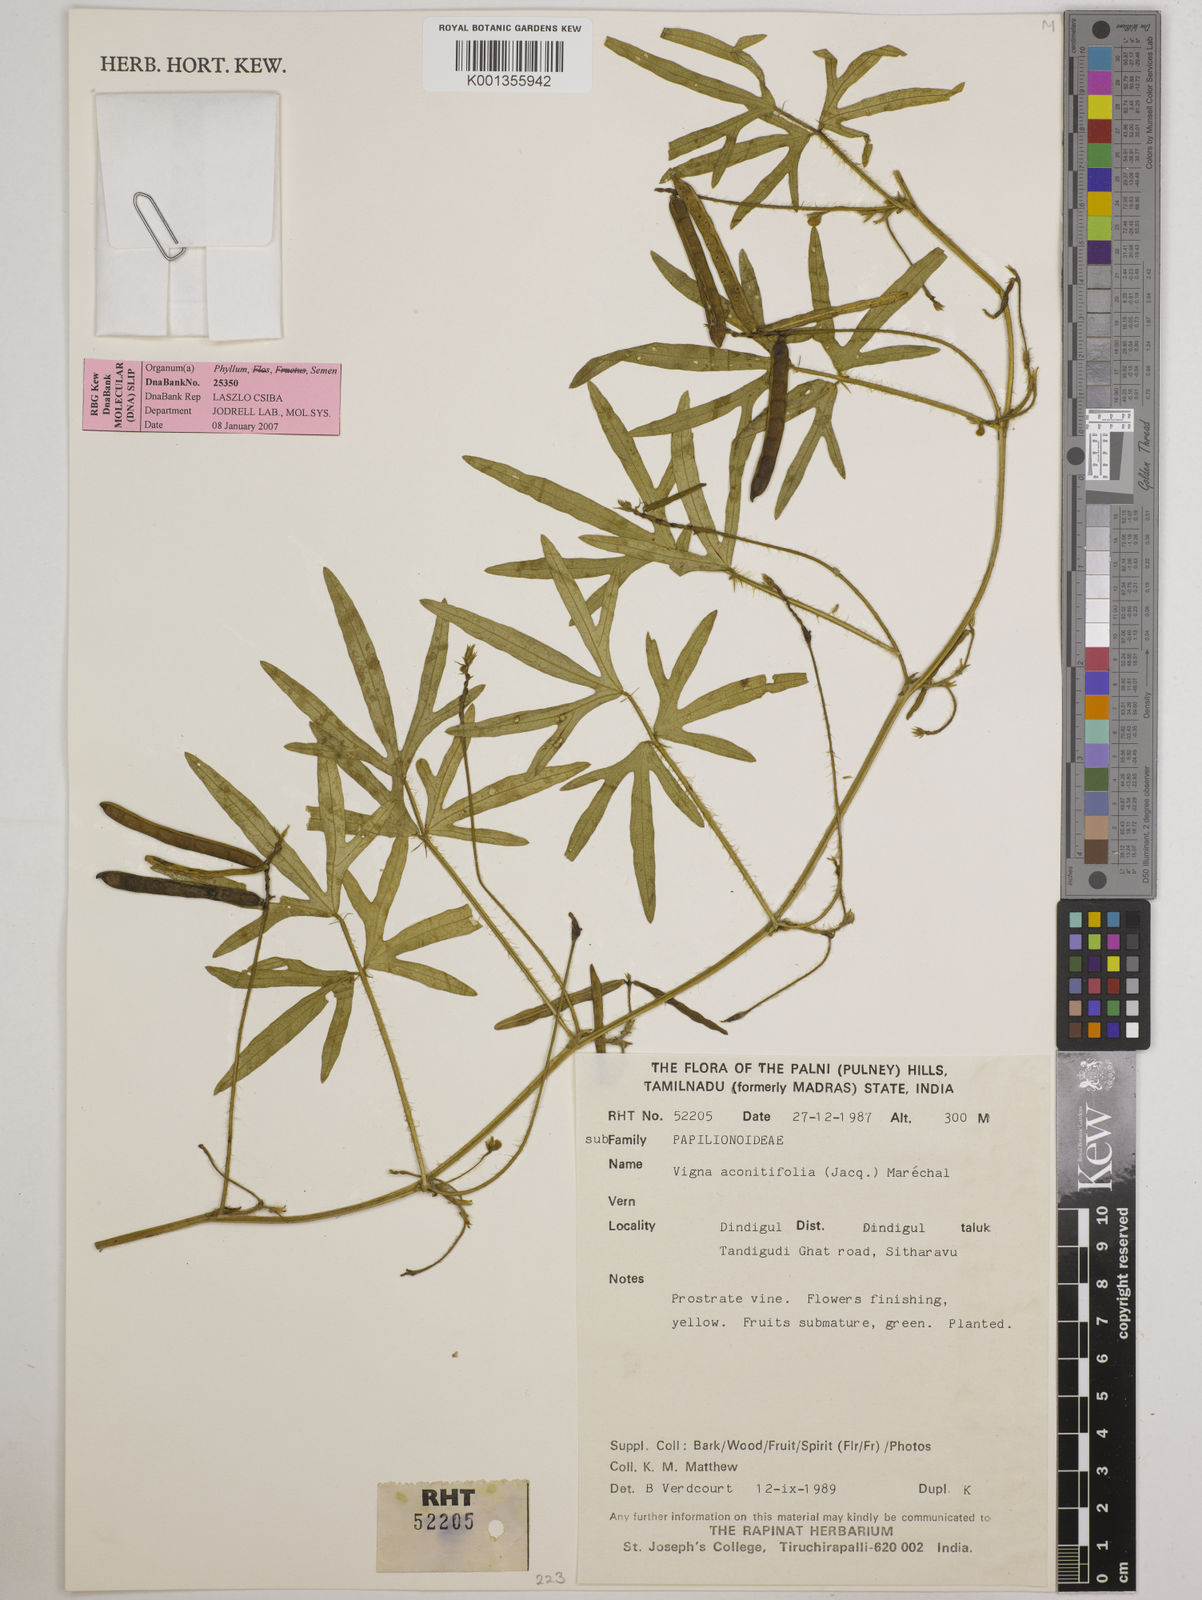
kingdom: Plantae
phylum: Tracheophyta
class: Magnoliopsida
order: Fabales
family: Fabaceae
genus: Vigna
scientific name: Vigna aconitifolia
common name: Dew bean
